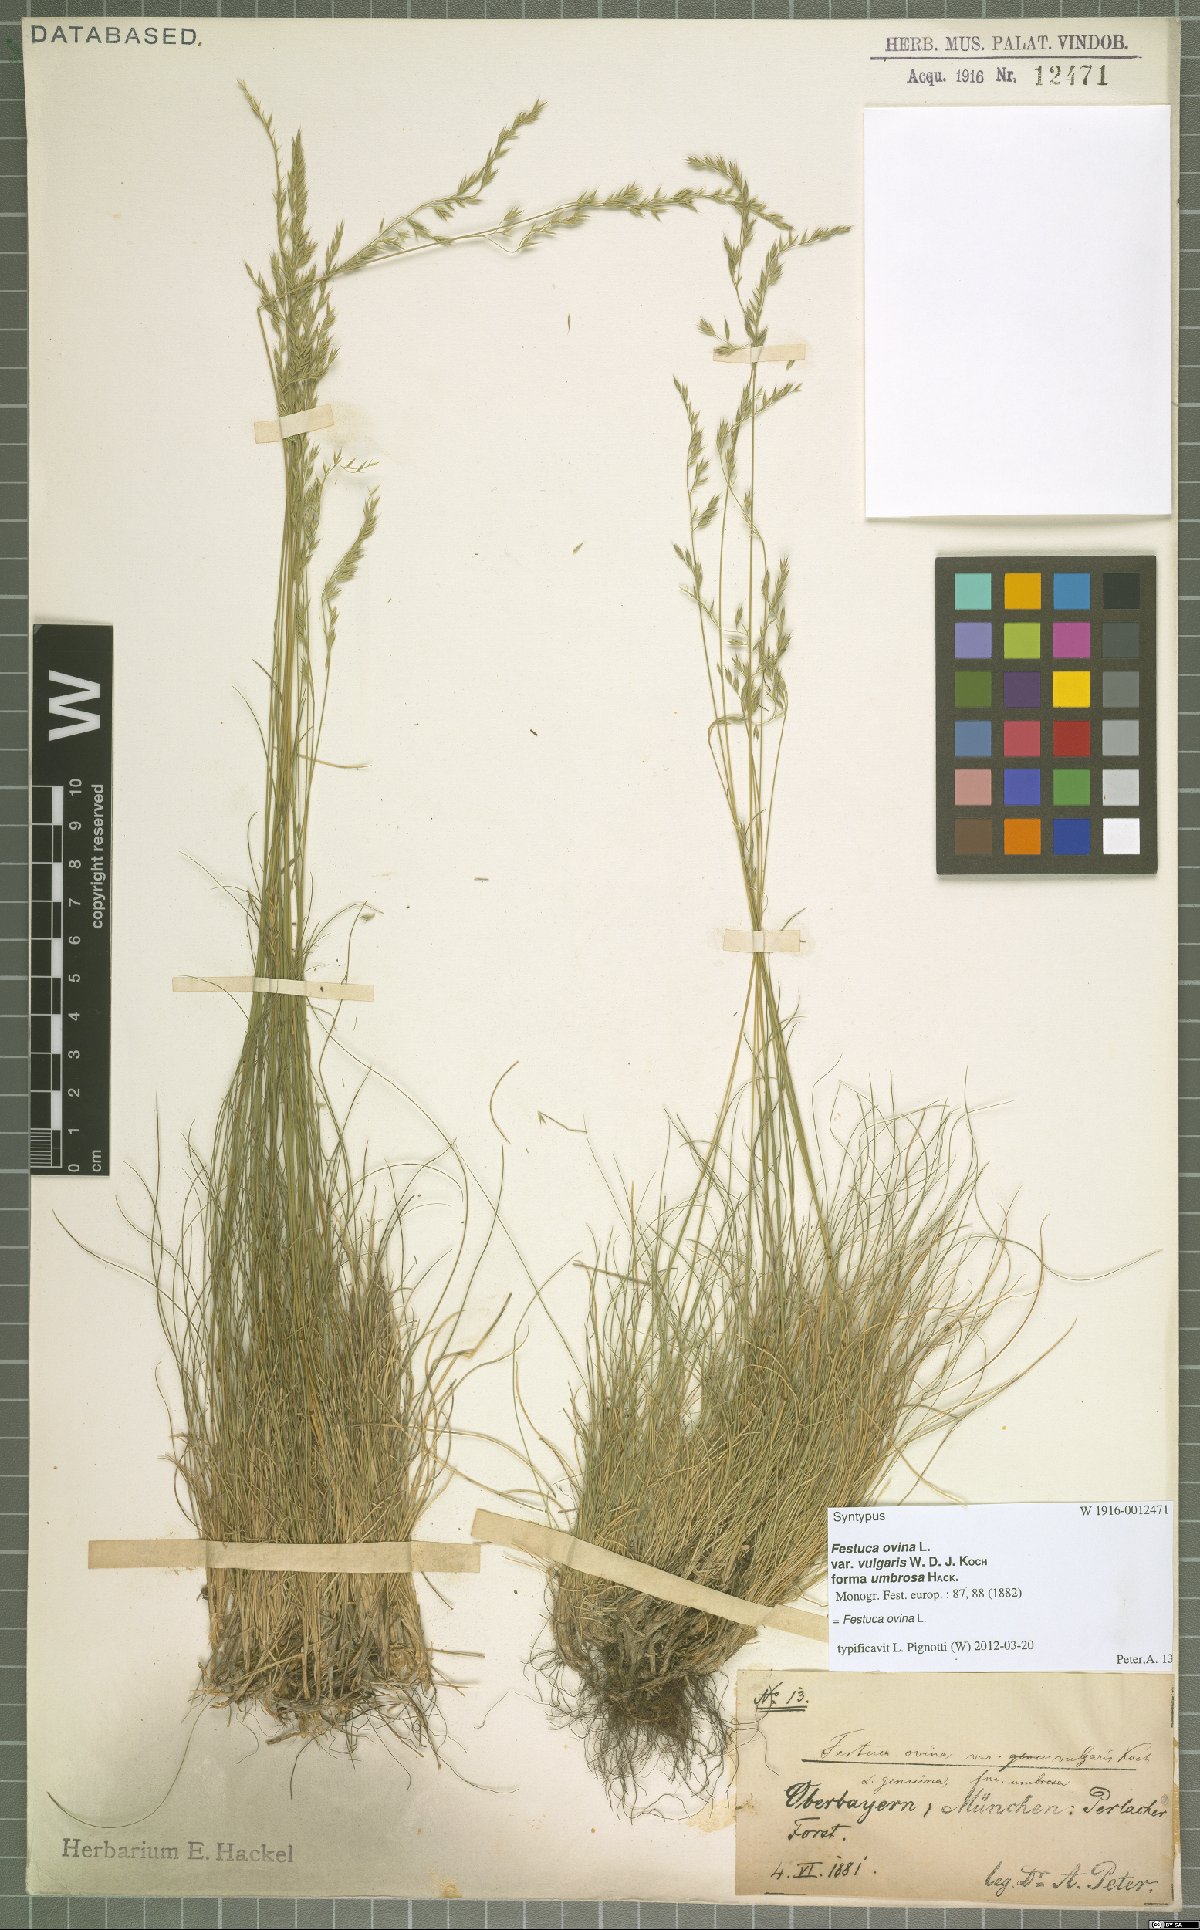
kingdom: Plantae
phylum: Tracheophyta
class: Liliopsida
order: Poales
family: Poaceae
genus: Festuca
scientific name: Festuca ovina
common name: Sheep fescue
